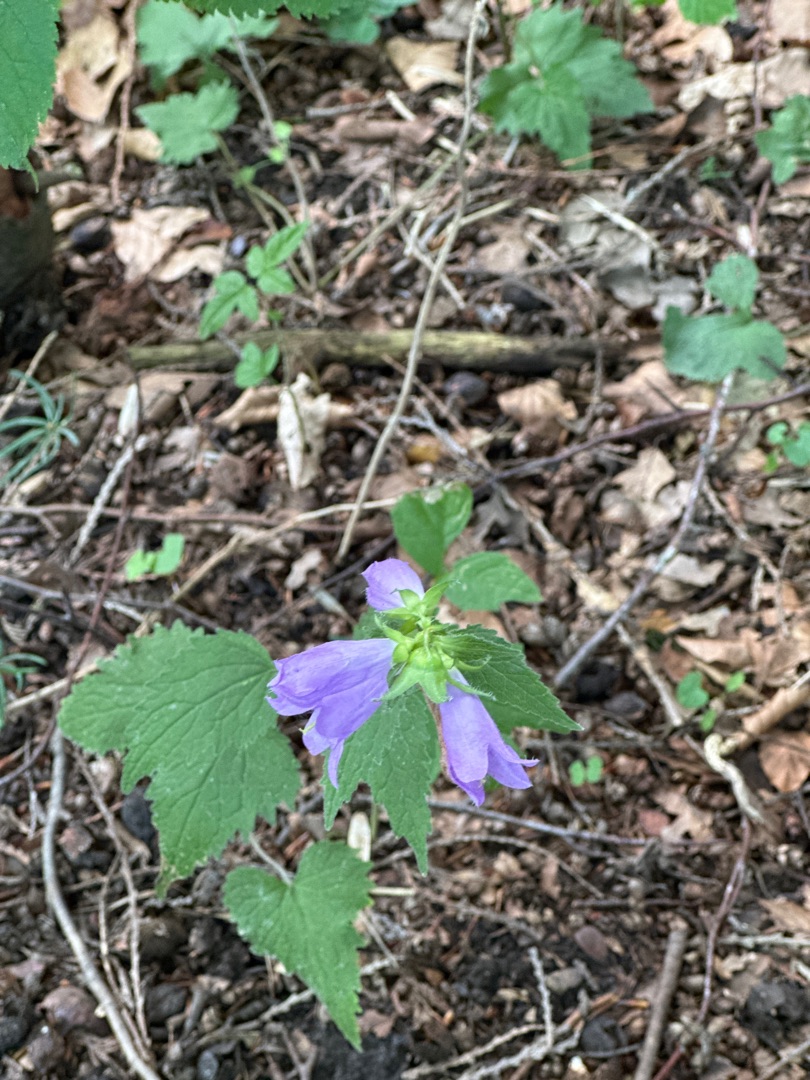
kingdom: Plantae
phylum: Tracheophyta
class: Magnoliopsida
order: Asterales
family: Campanulaceae
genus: Campanula
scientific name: Campanula trachelium
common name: Nælde-klokke
